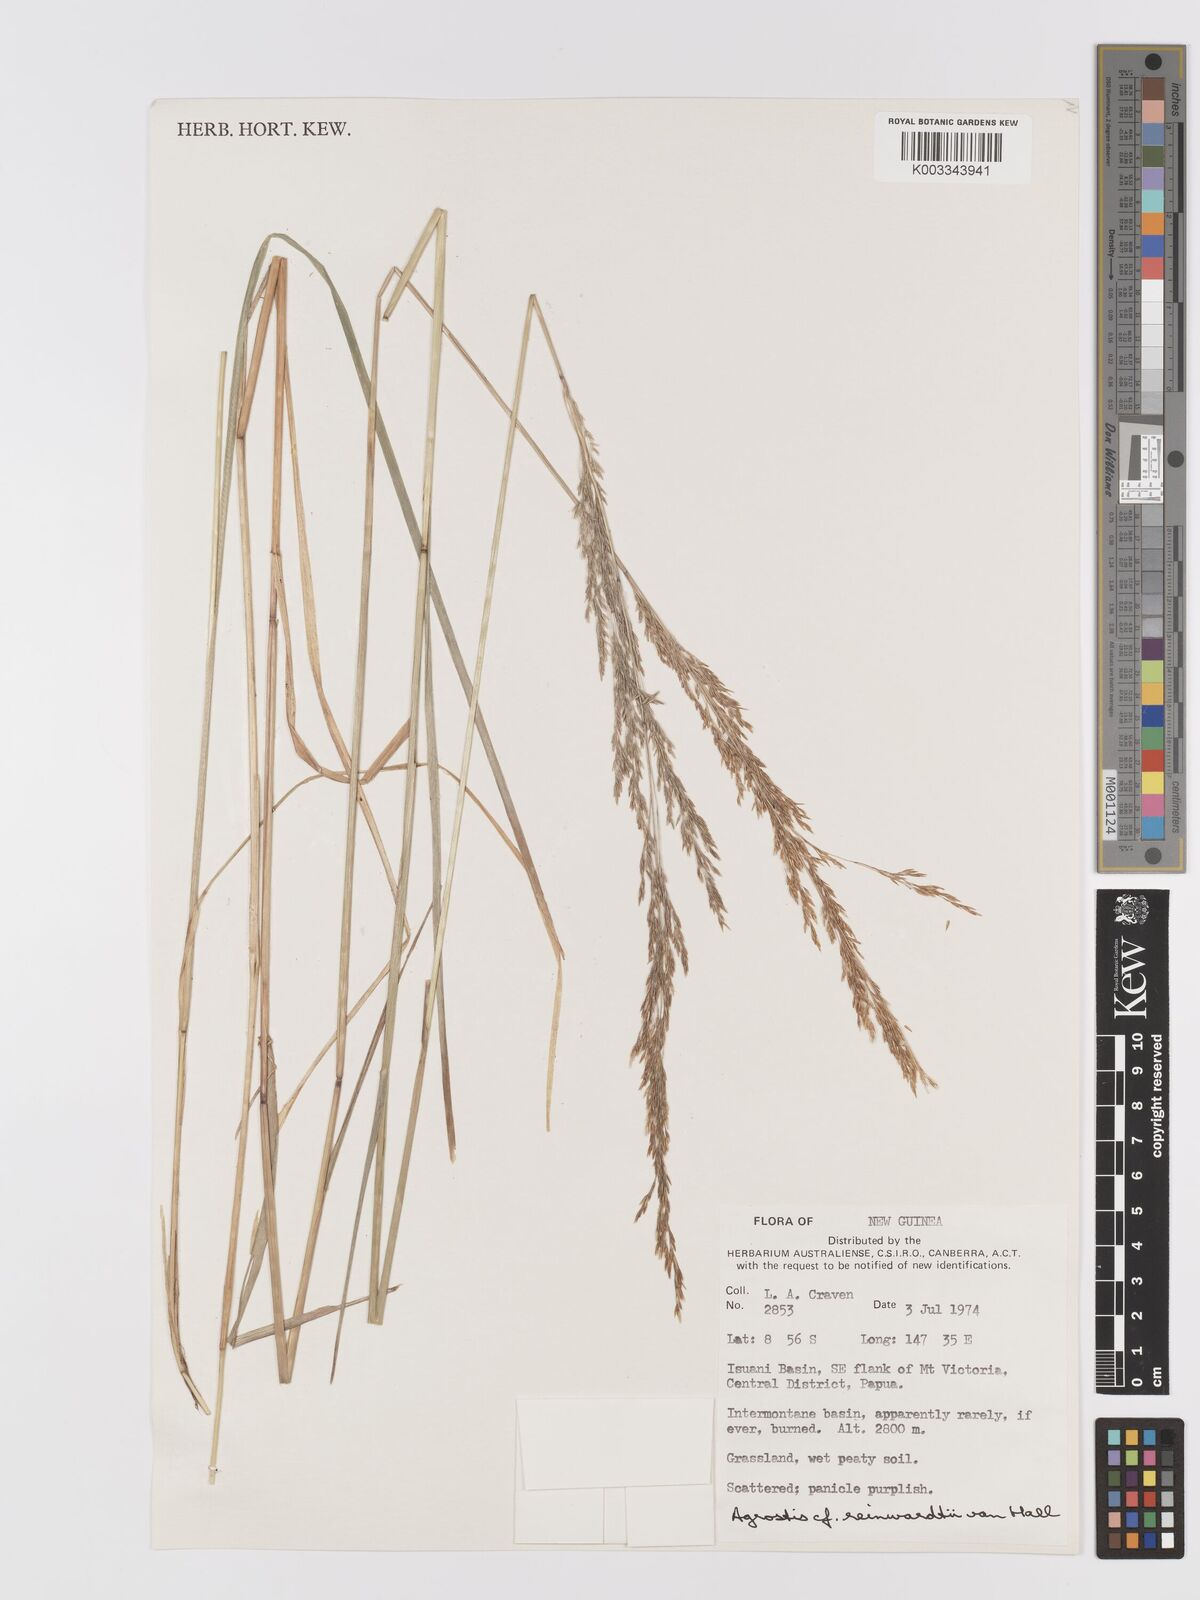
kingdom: Plantae
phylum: Tracheophyta
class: Liliopsida
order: Poales
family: Poaceae
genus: Agrostis
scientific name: Agrostis
